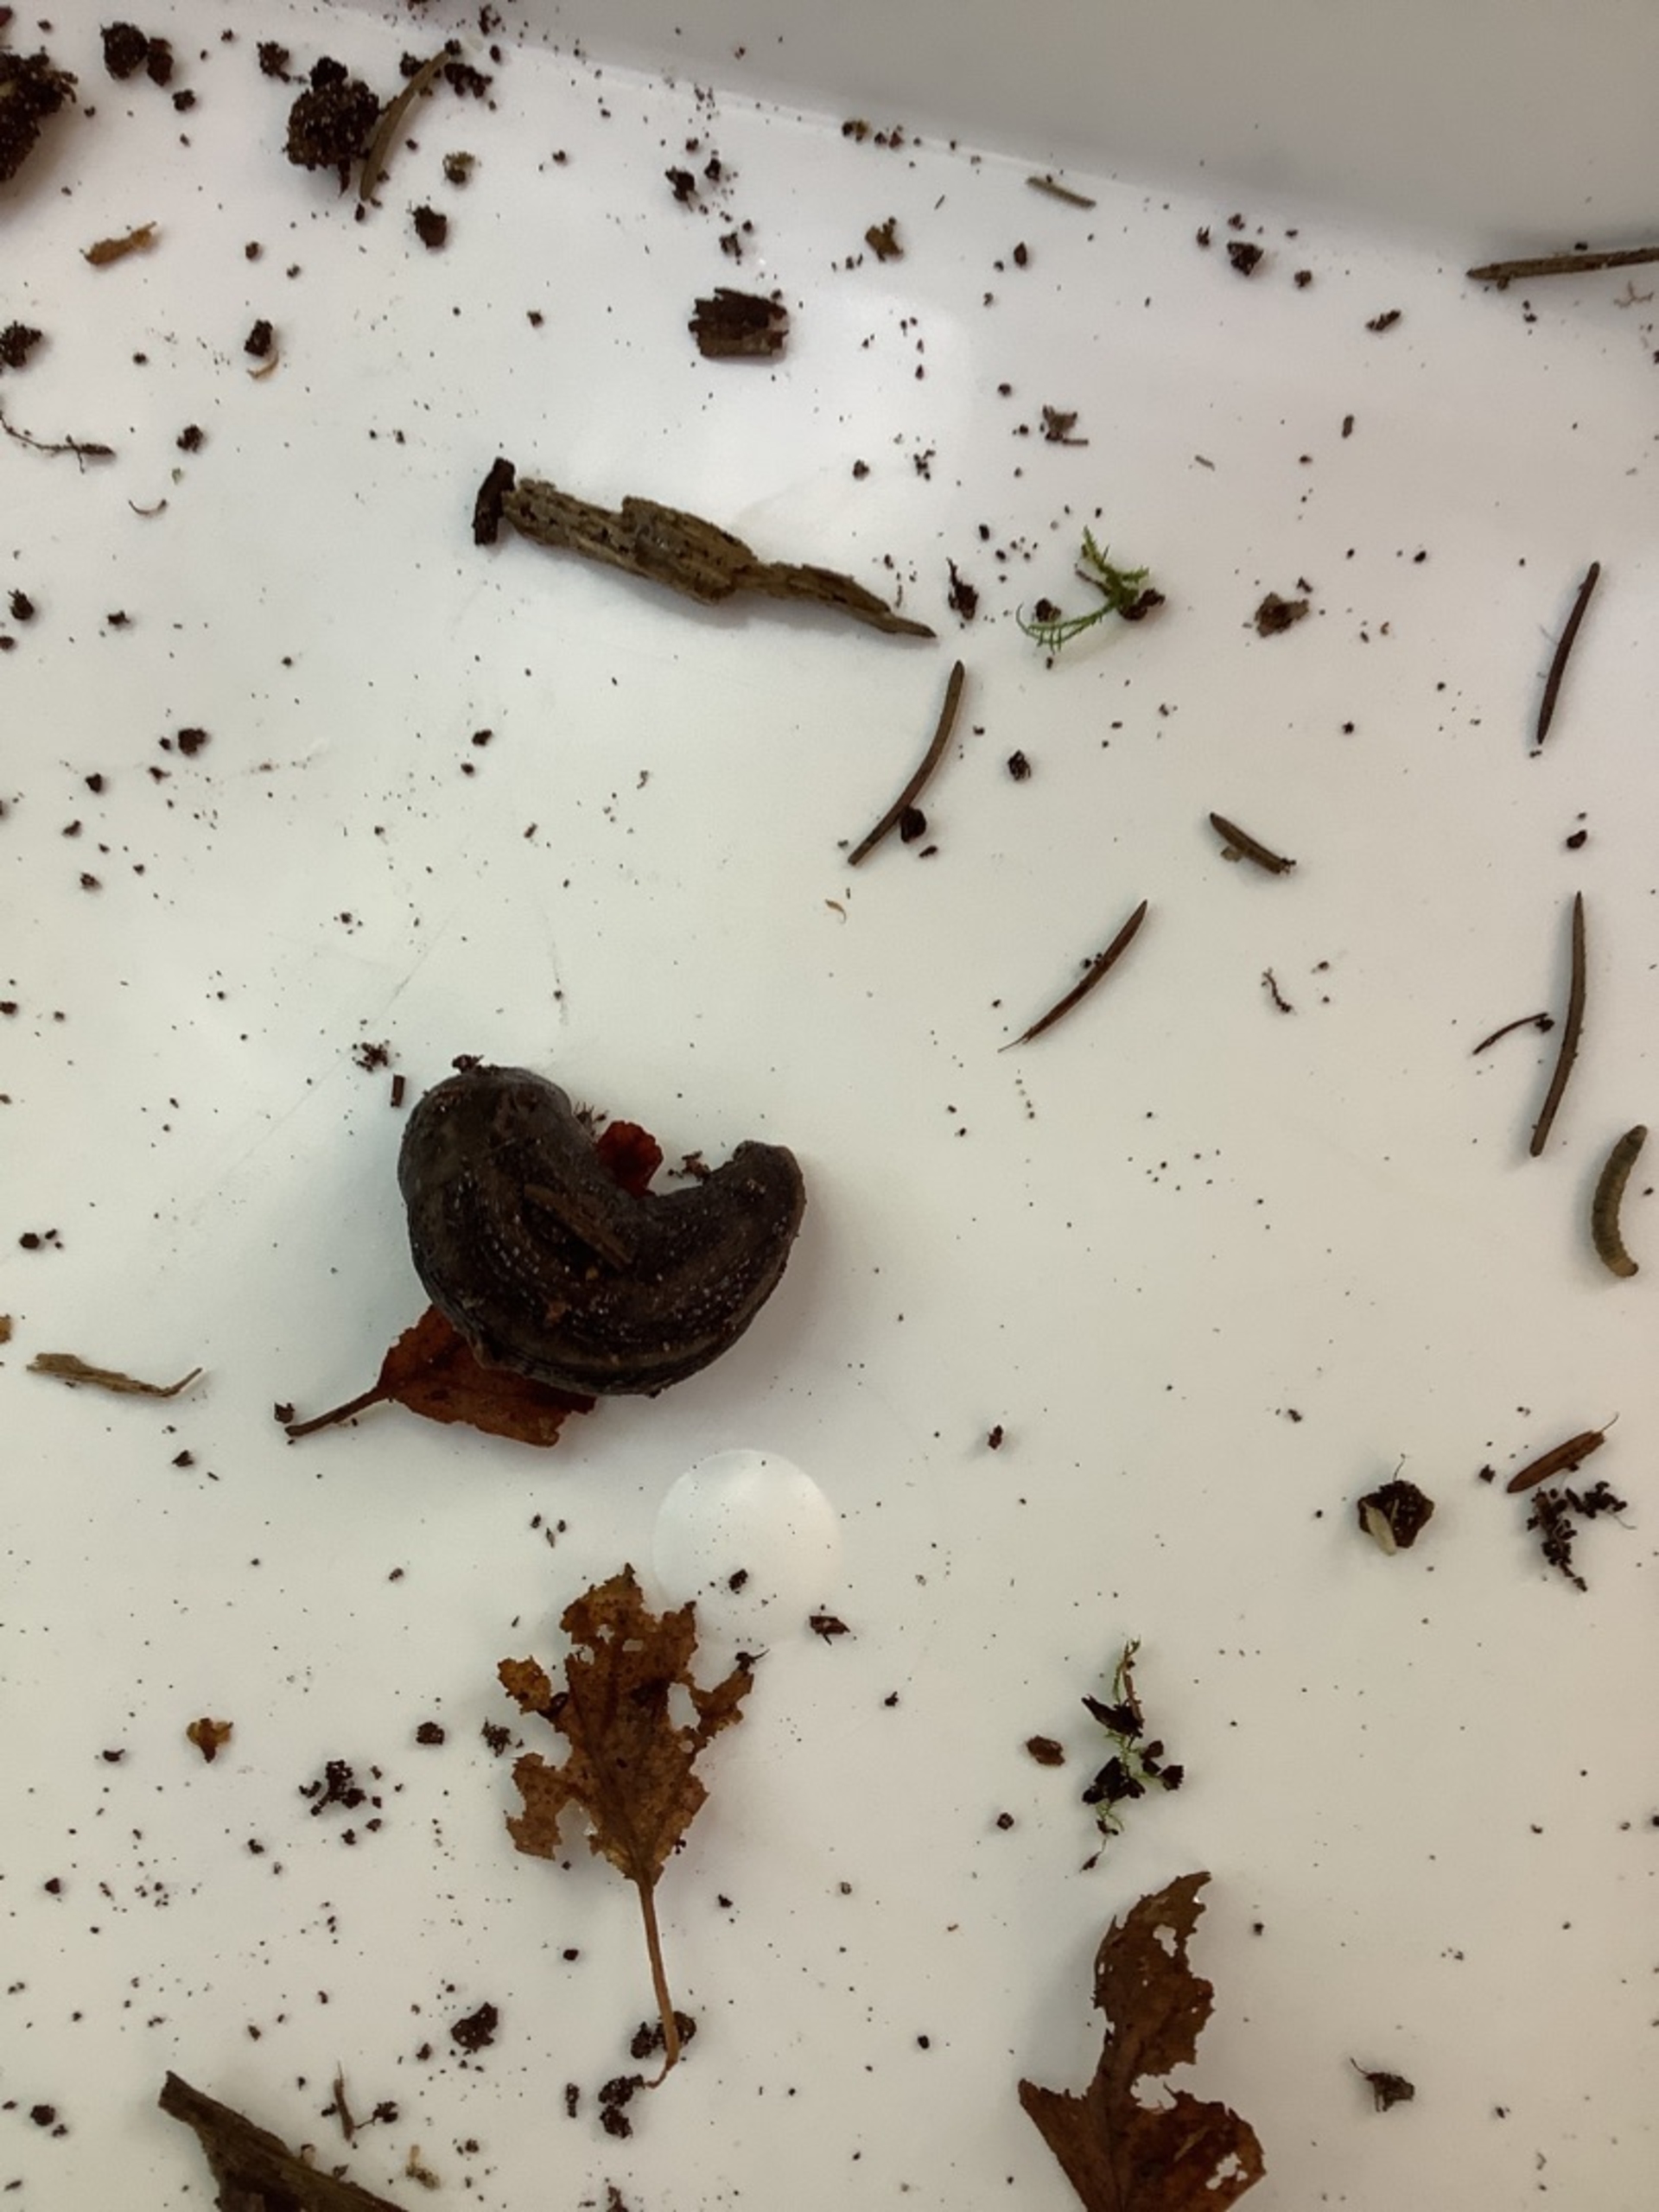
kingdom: Animalia
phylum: Mollusca
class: Gastropoda
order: Stylommatophora
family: Limacidae
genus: Limax
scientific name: Limax maximus
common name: Pantersnegl
